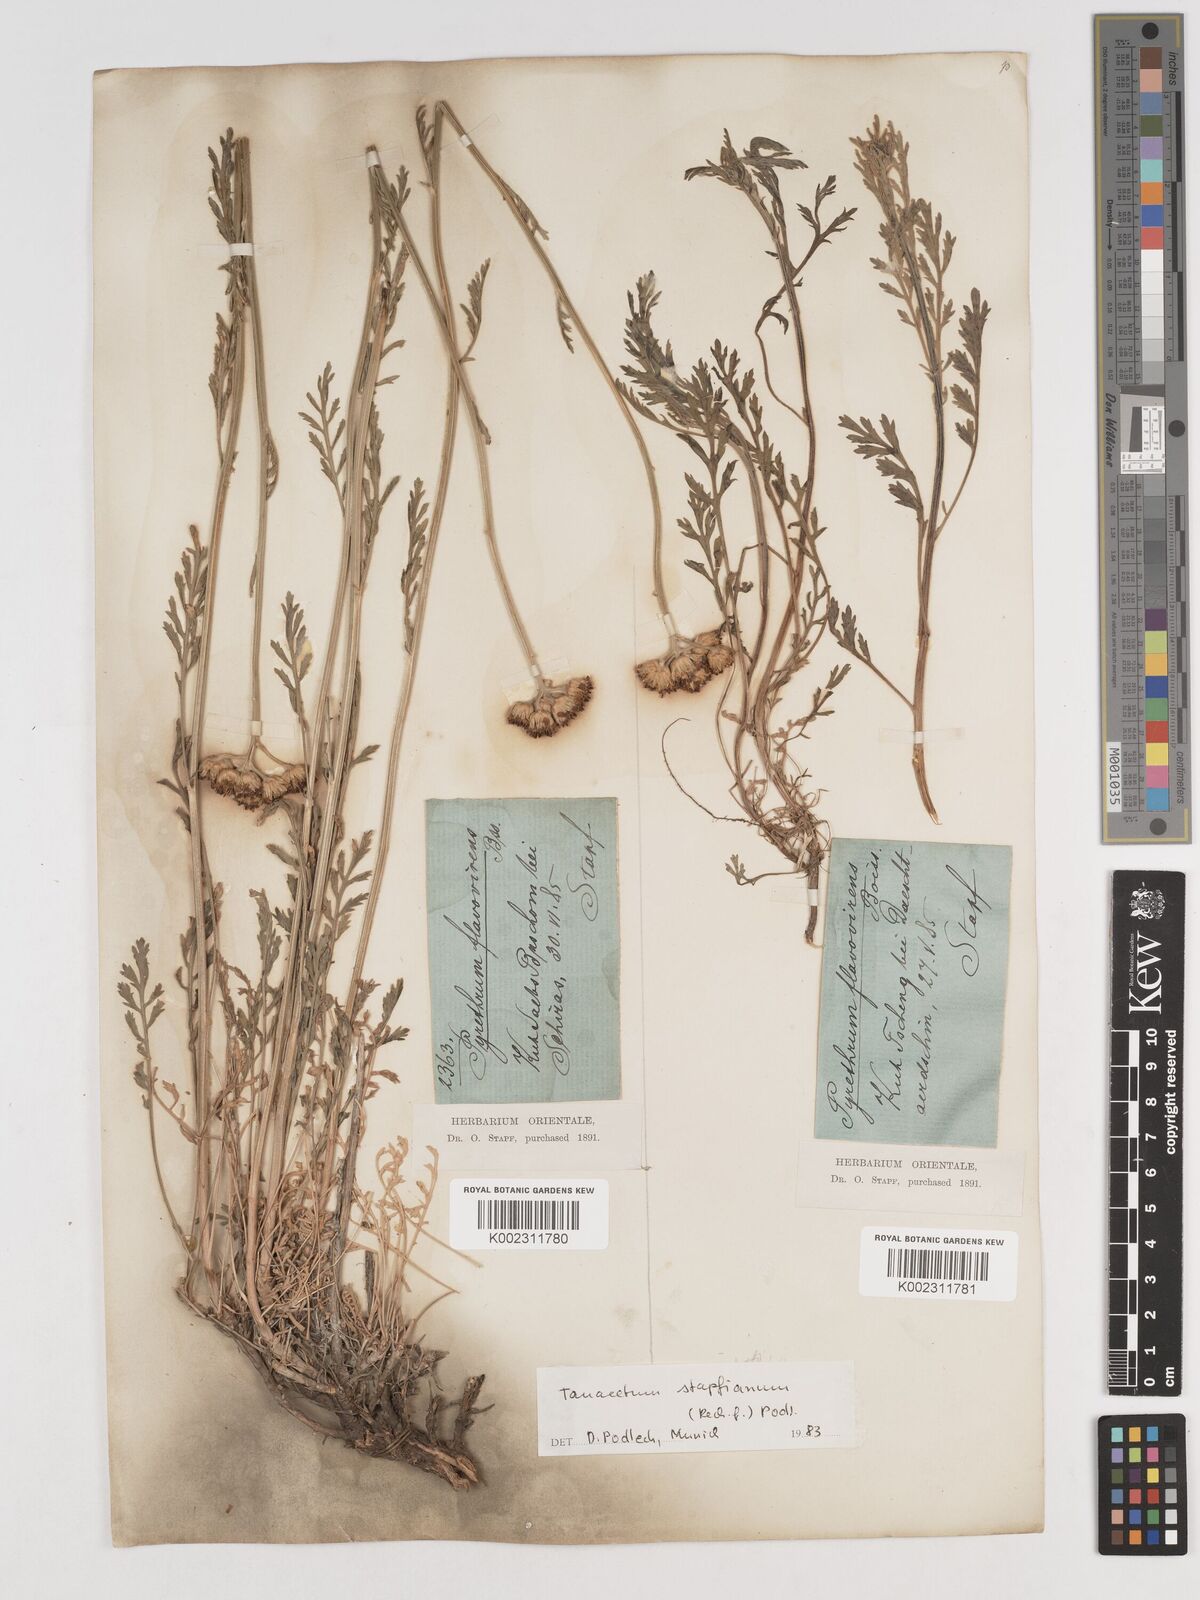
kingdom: Plantae
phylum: Tracheophyta
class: Magnoliopsida
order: Asterales
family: Asteraceae
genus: Tanacetum
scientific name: Tanacetum pinnatum
